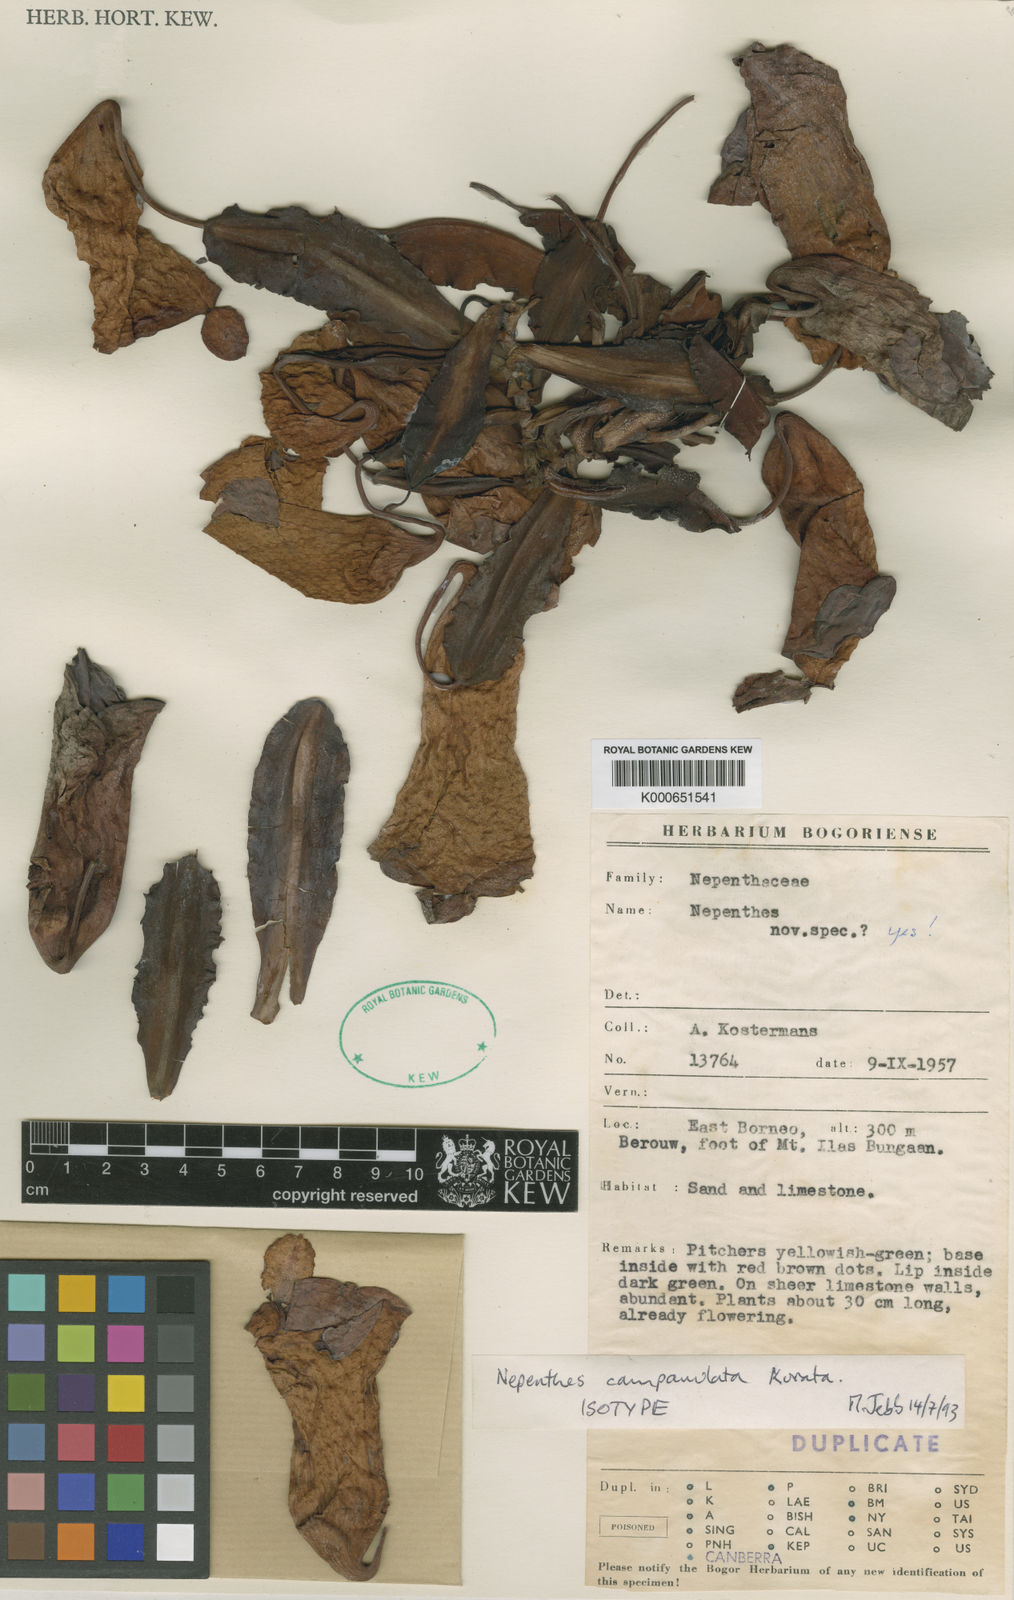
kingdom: Plantae
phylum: Tracheophyta
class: Magnoliopsida
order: Caryophyllales
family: Nepenthaceae
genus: Nepenthes
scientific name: Nepenthes campanulata
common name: Bell-shaped pitcher-plant
